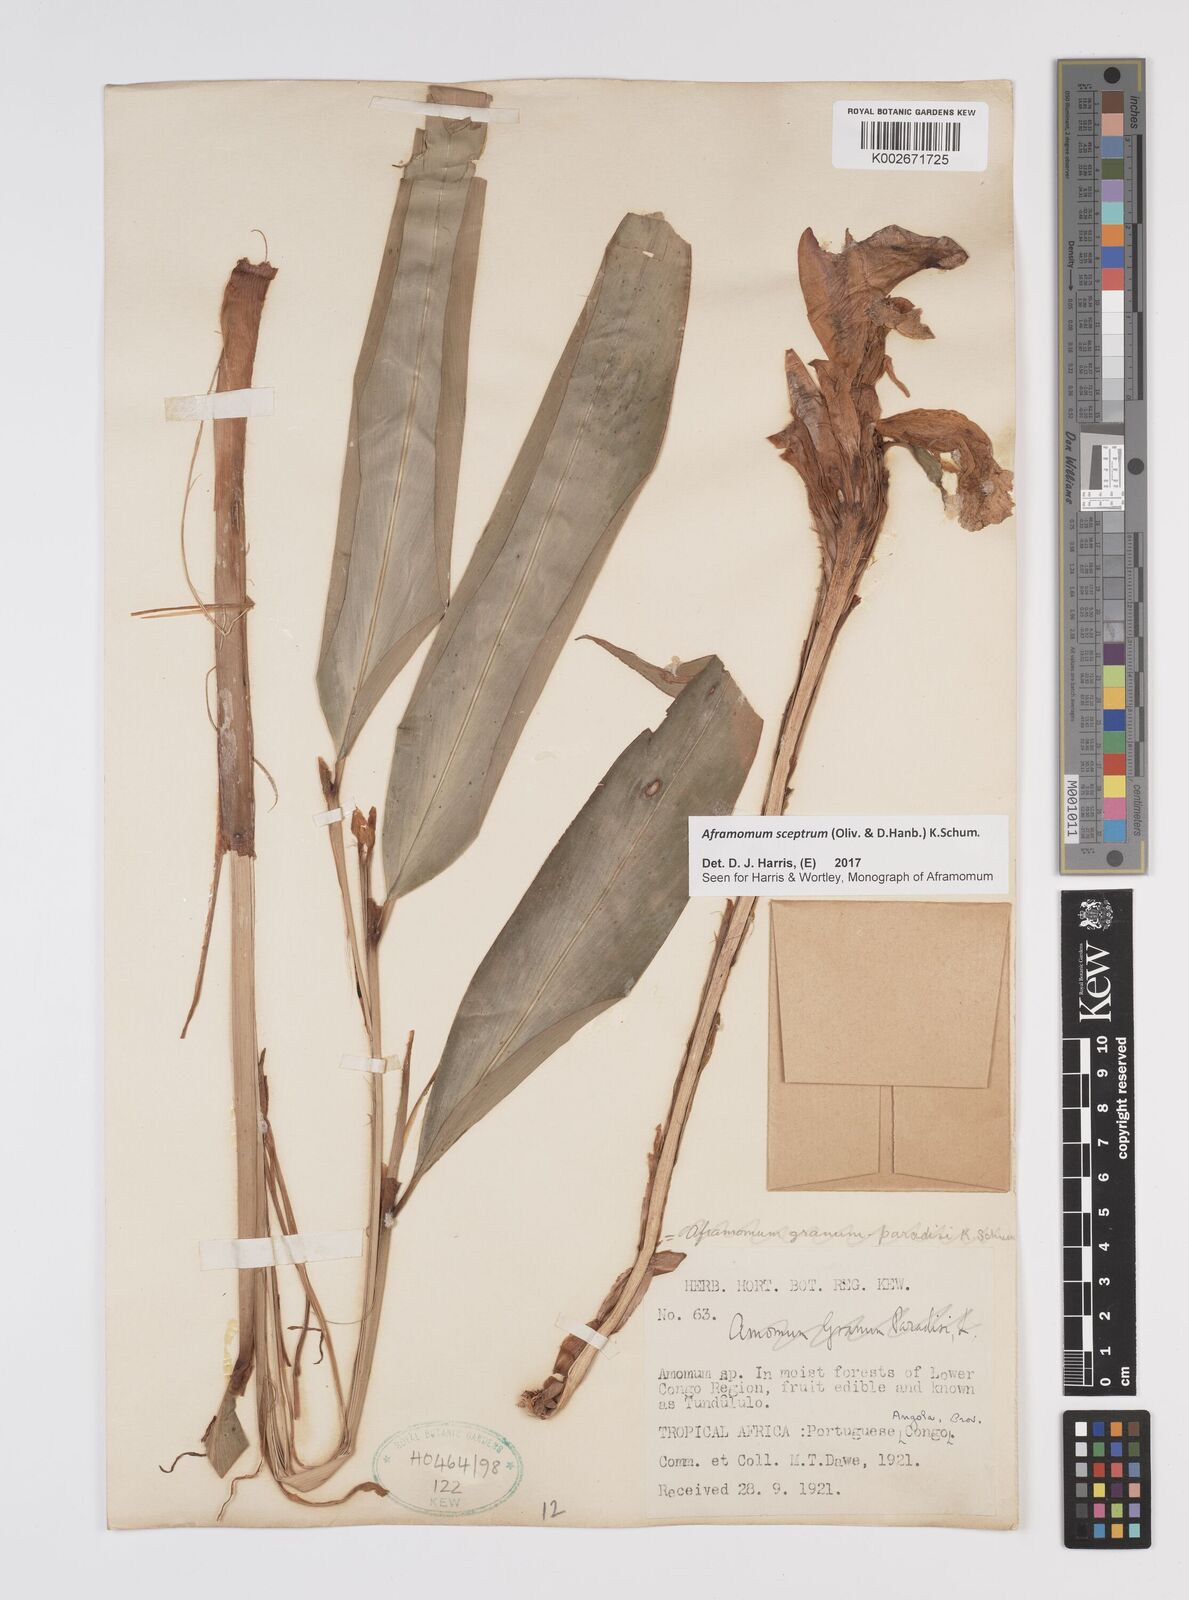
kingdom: Plantae
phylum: Tracheophyta
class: Liliopsida
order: Zingiberales
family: Zingiberaceae
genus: Aframomum
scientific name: Aframomum cereum
